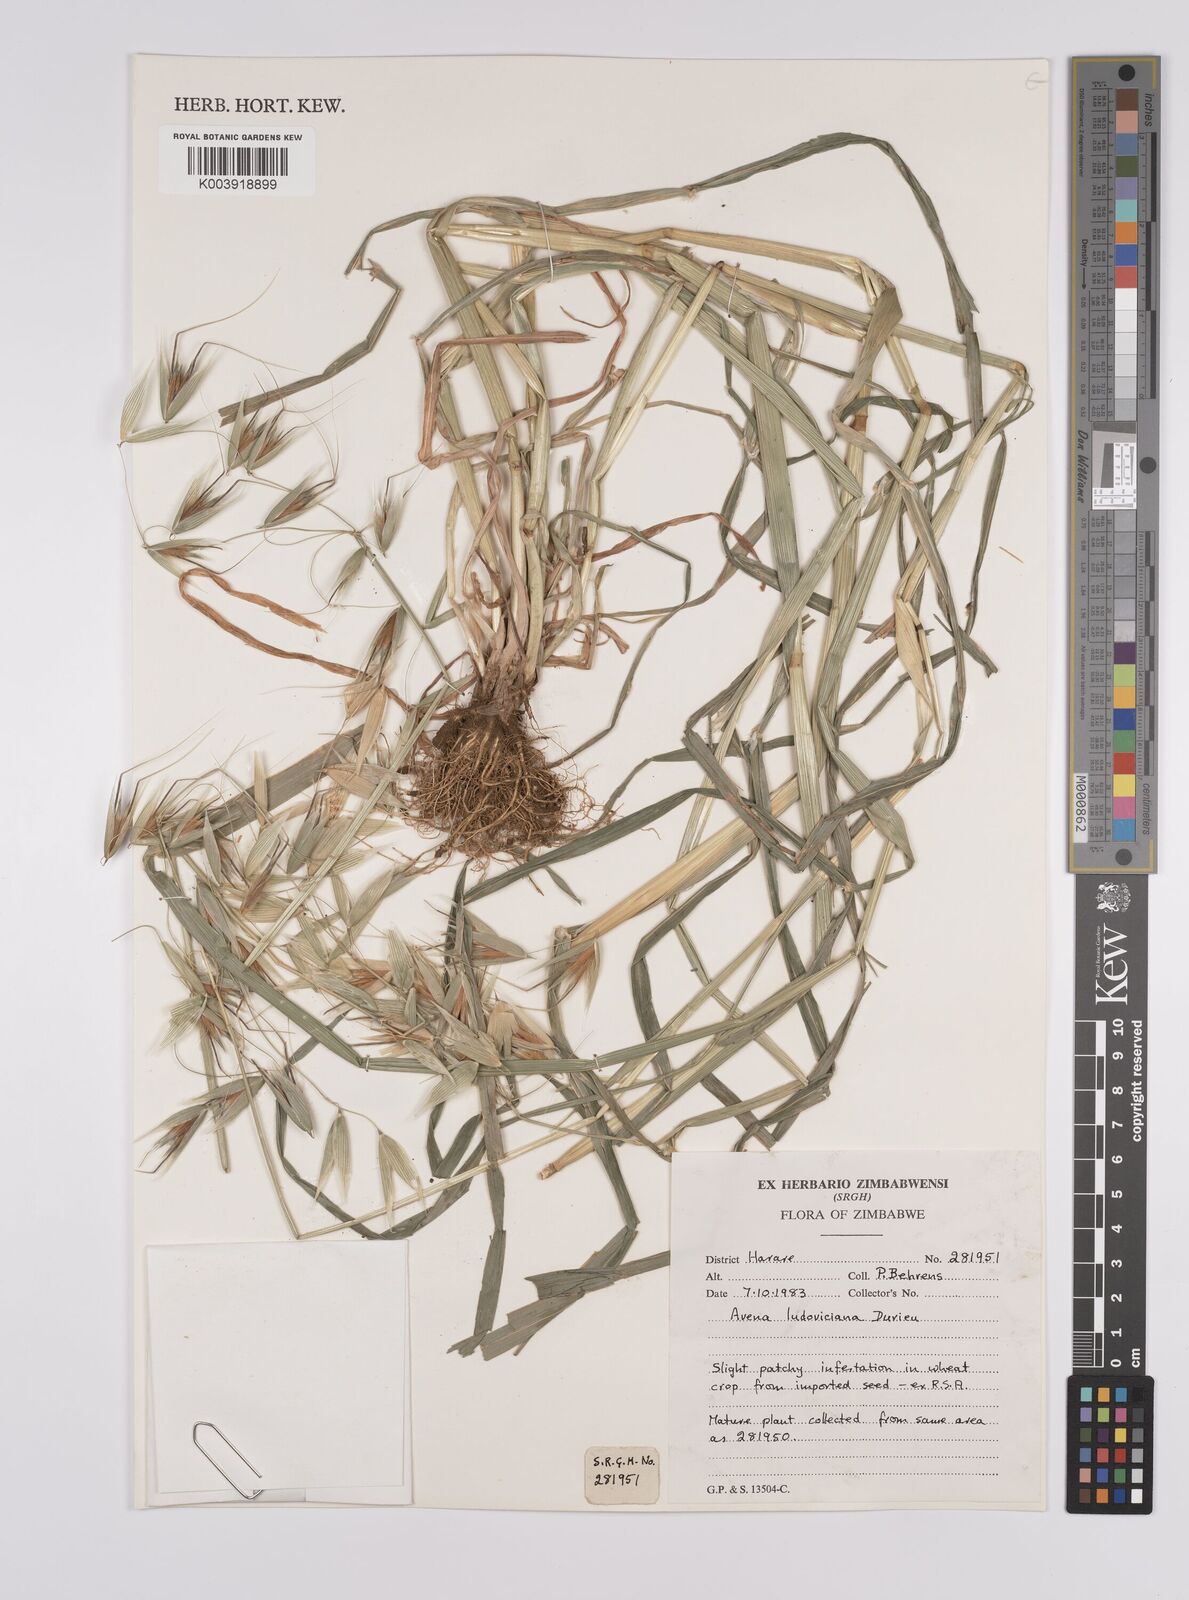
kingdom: Plantae
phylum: Tracheophyta
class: Liliopsida
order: Poales
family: Poaceae
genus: Avena
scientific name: Avena sterilis
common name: Animated oat
